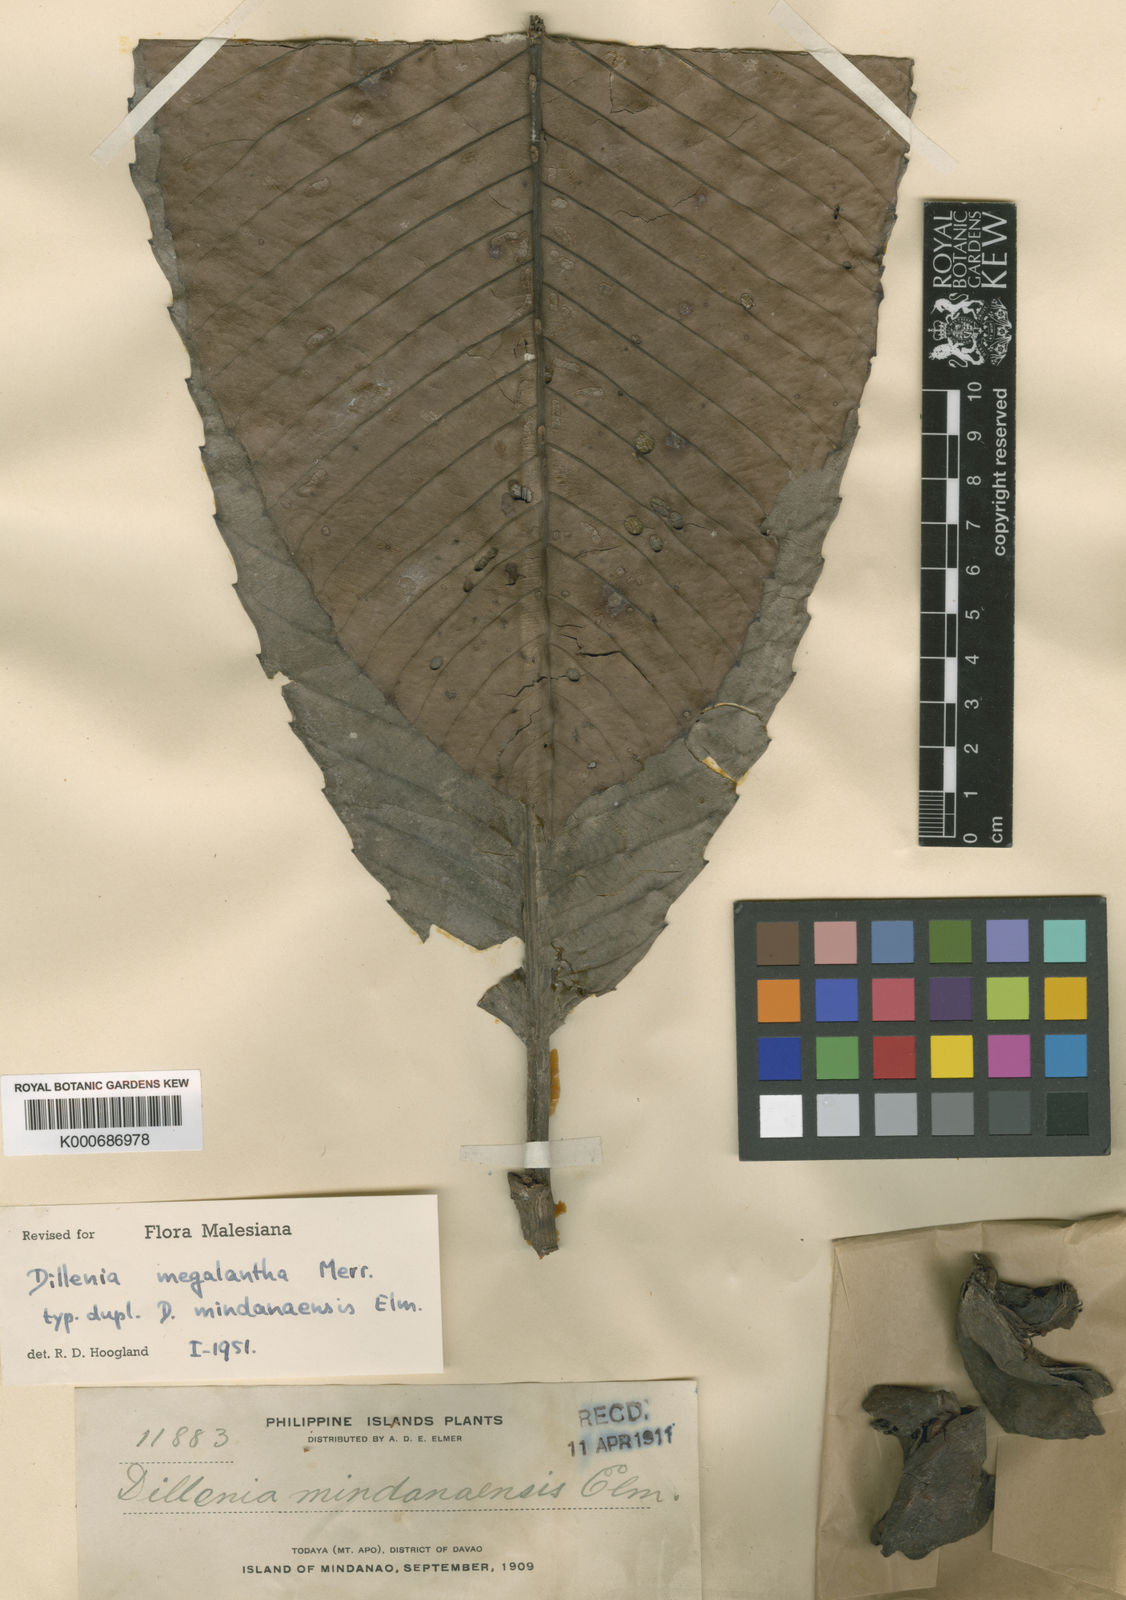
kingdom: Plantae
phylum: Tracheophyta
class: Magnoliopsida
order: Dilleniales
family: Dilleniaceae
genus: Dillenia
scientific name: Dillenia megalantha
